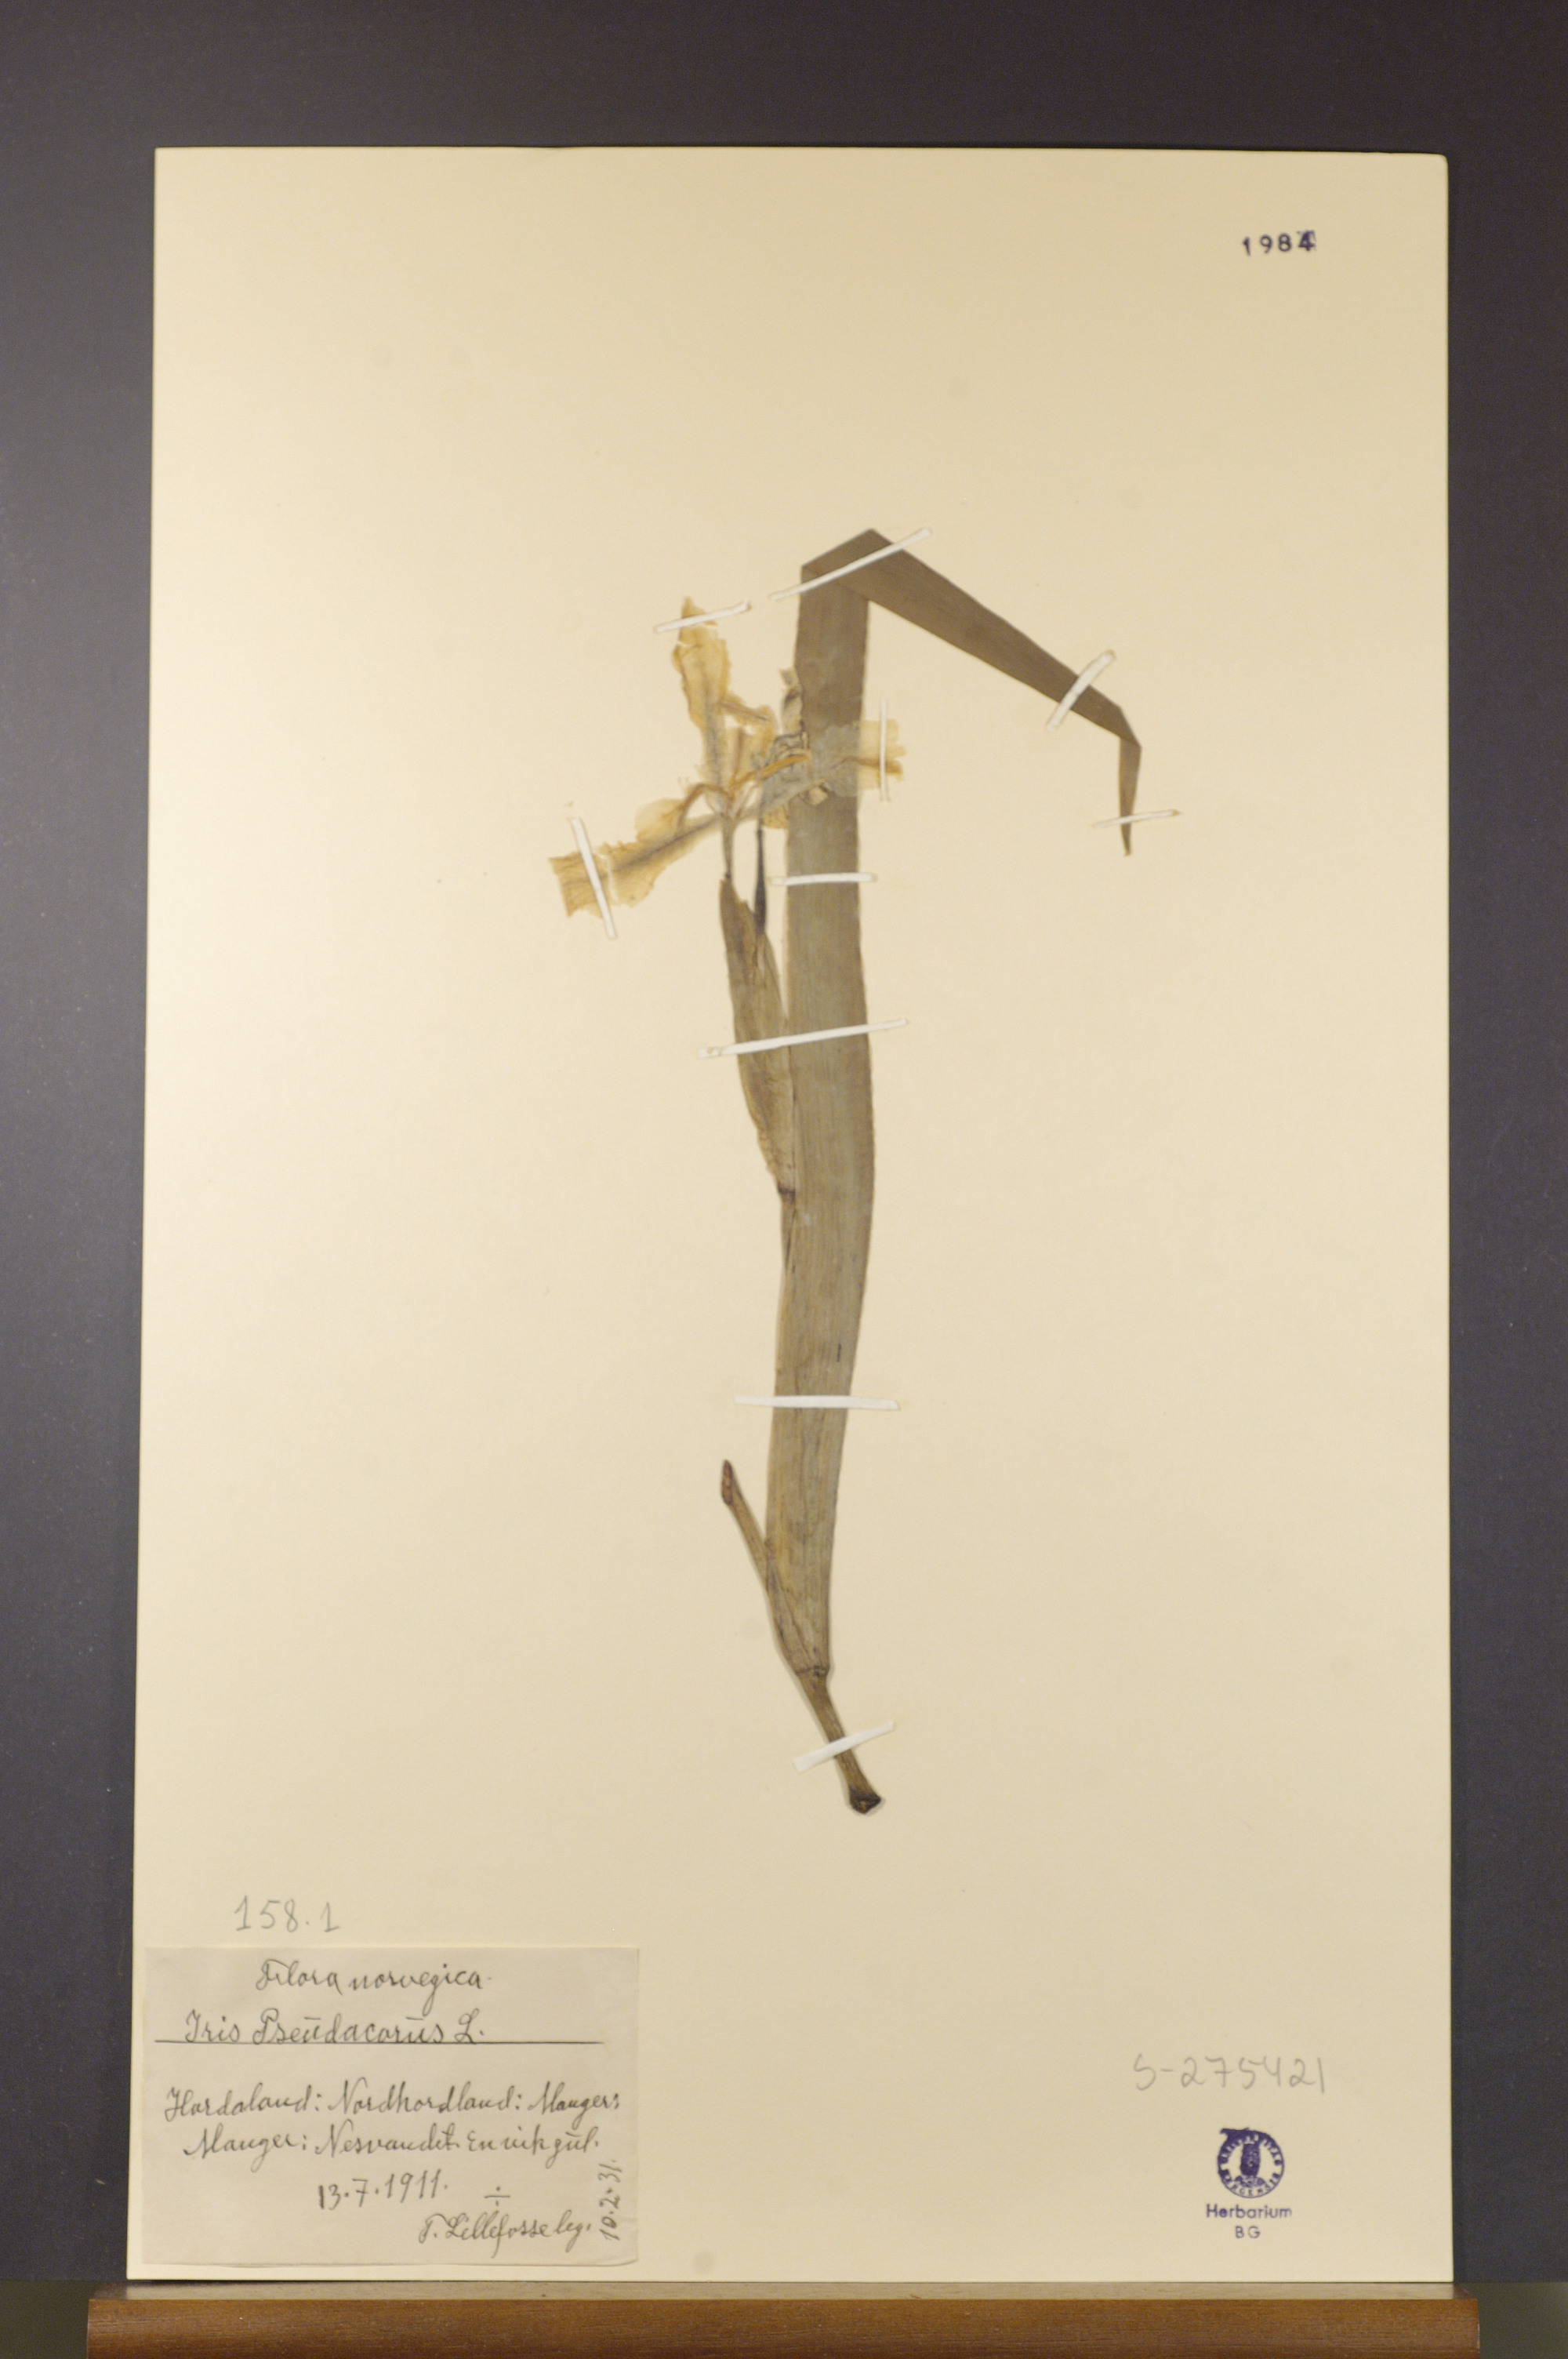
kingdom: Plantae
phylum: Tracheophyta
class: Liliopsida
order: Asparagales
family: Iridaceae
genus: Iris
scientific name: Iris pseudacorus
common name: Yellow flag
